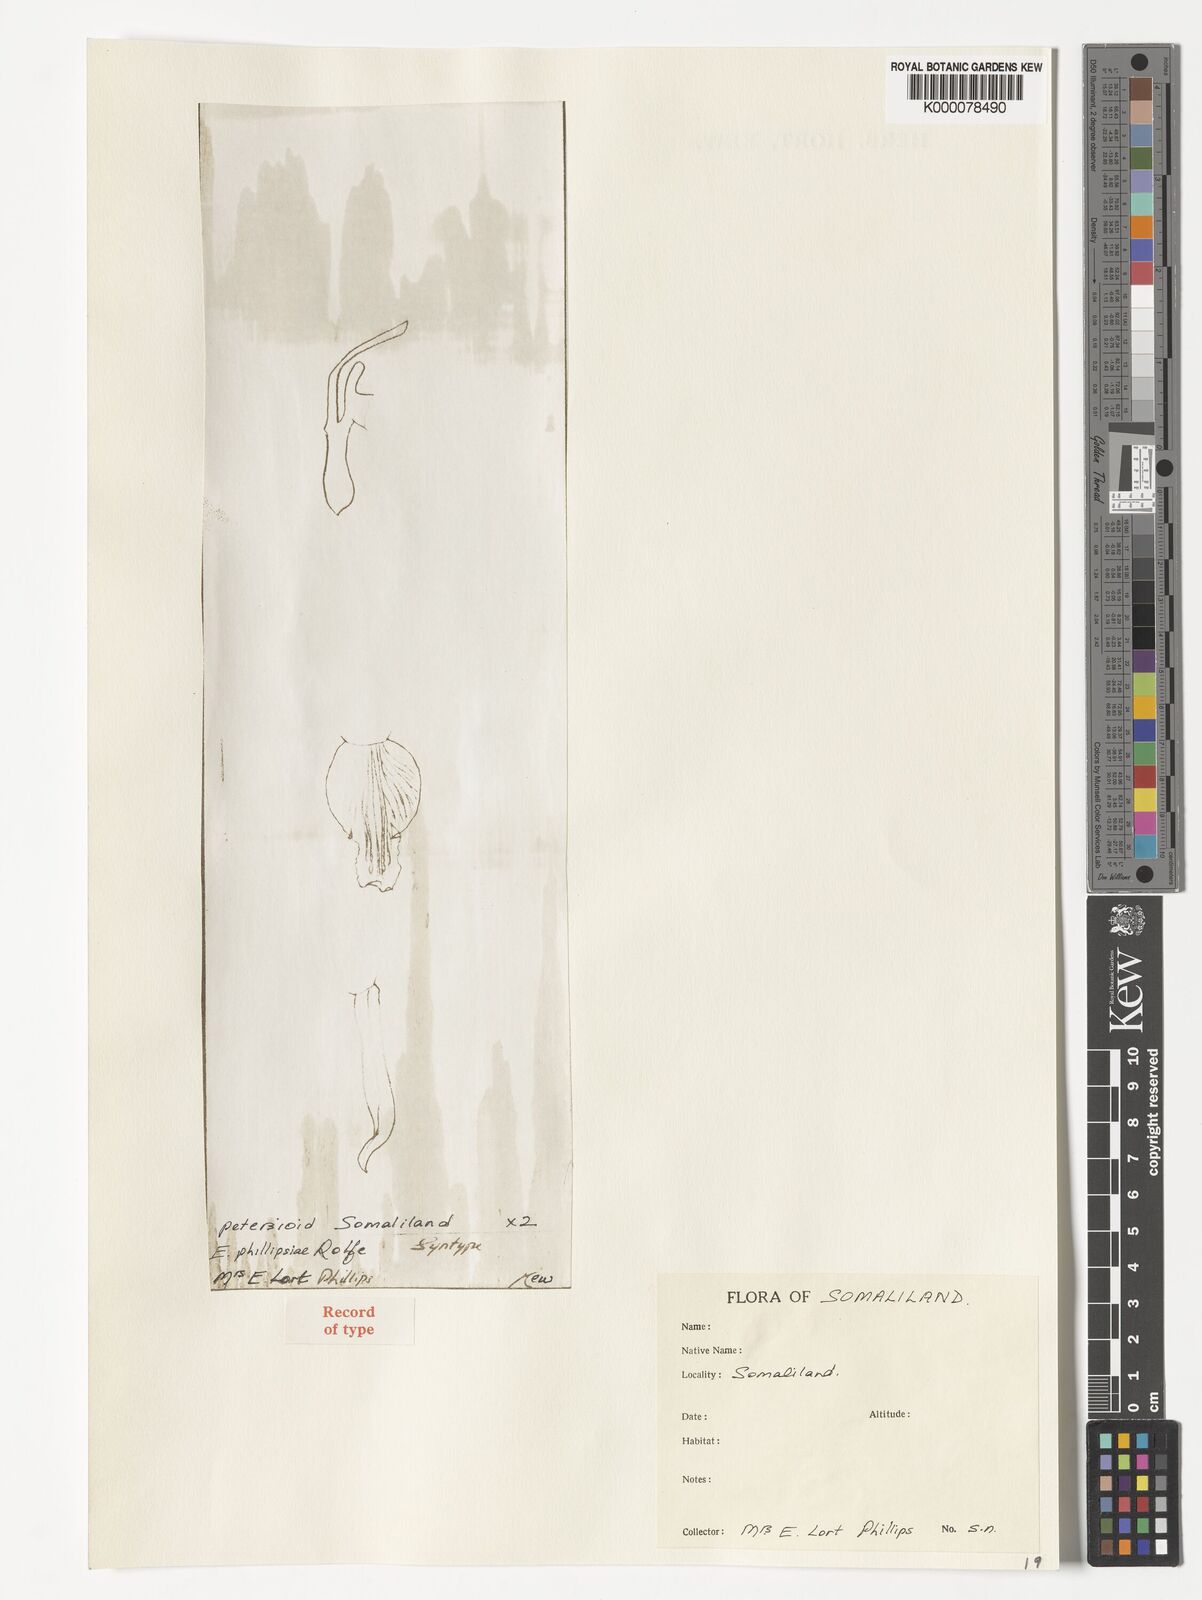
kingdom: Plantae
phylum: Tracheophyta
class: Liliopsida
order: Asparagales
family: Orchidaceae
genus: Eulophia
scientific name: Eulophia petersii
